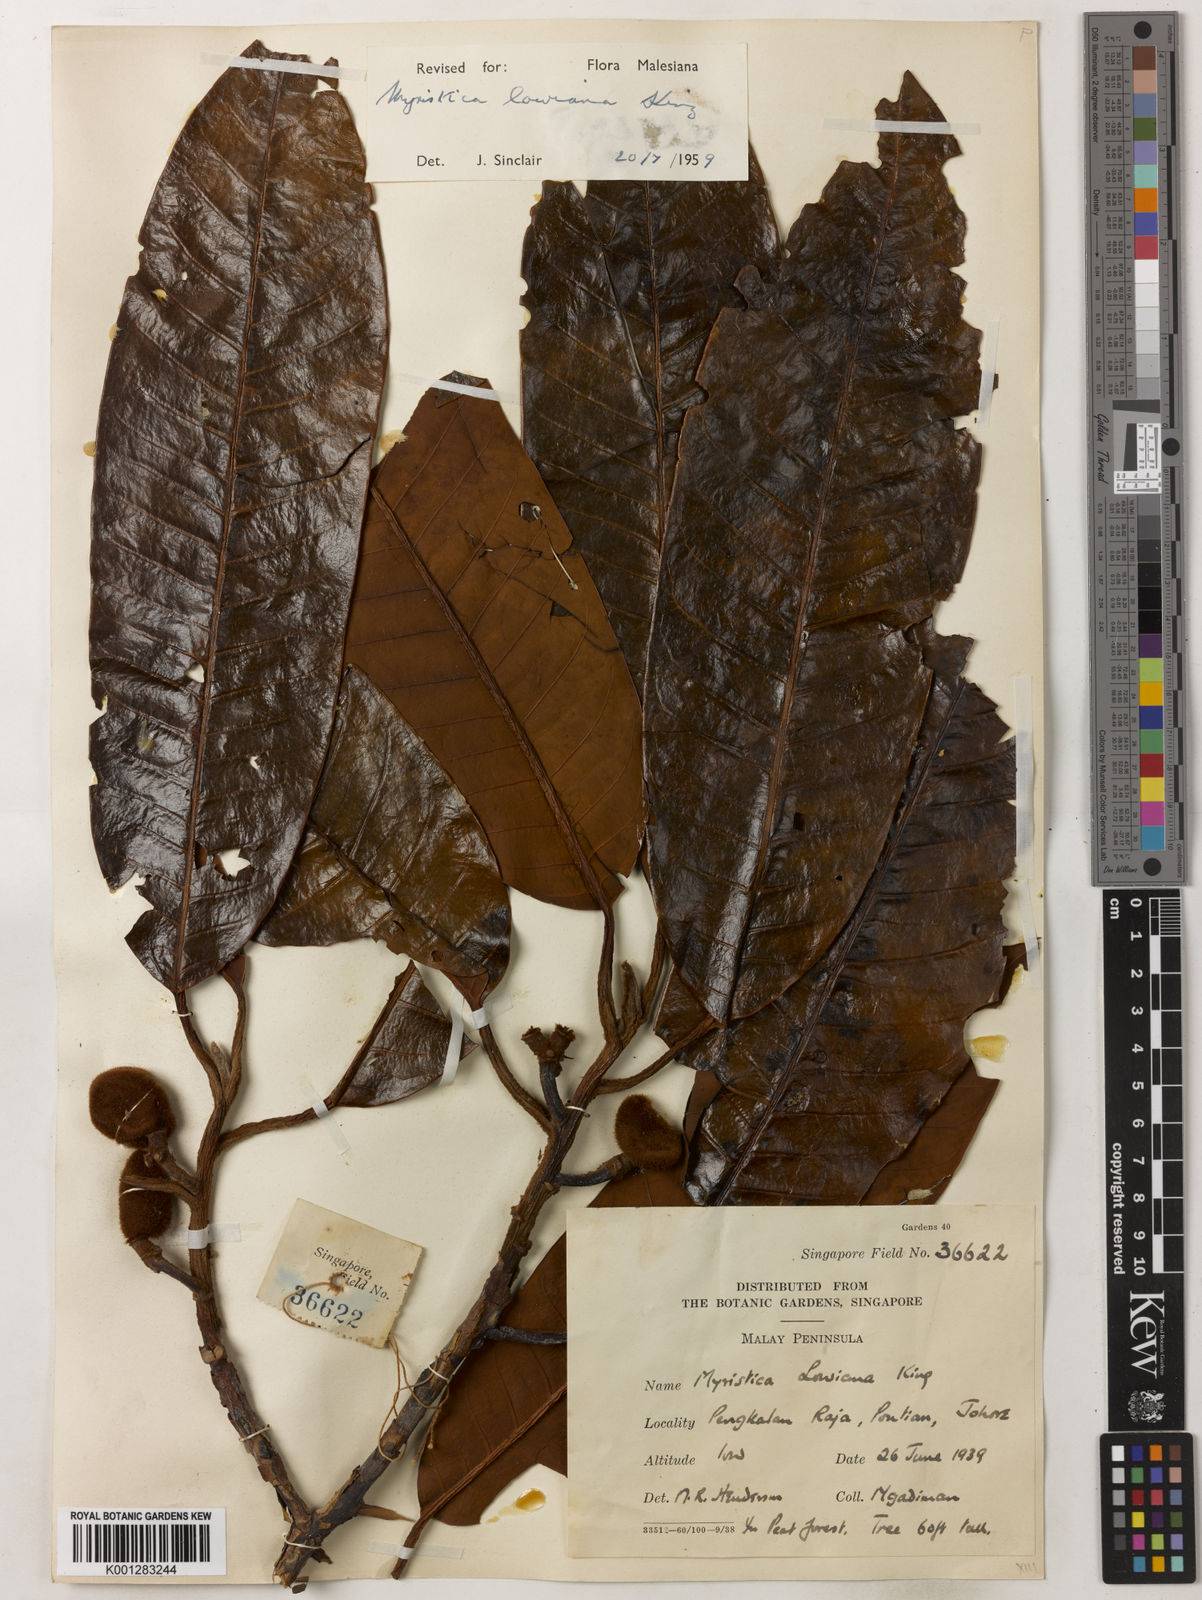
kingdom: Plantae
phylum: Tracheophyta
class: Magnoliopsida
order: Magnoliales
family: Myristicaceae
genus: Myristica
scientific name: Myristica lowiana
